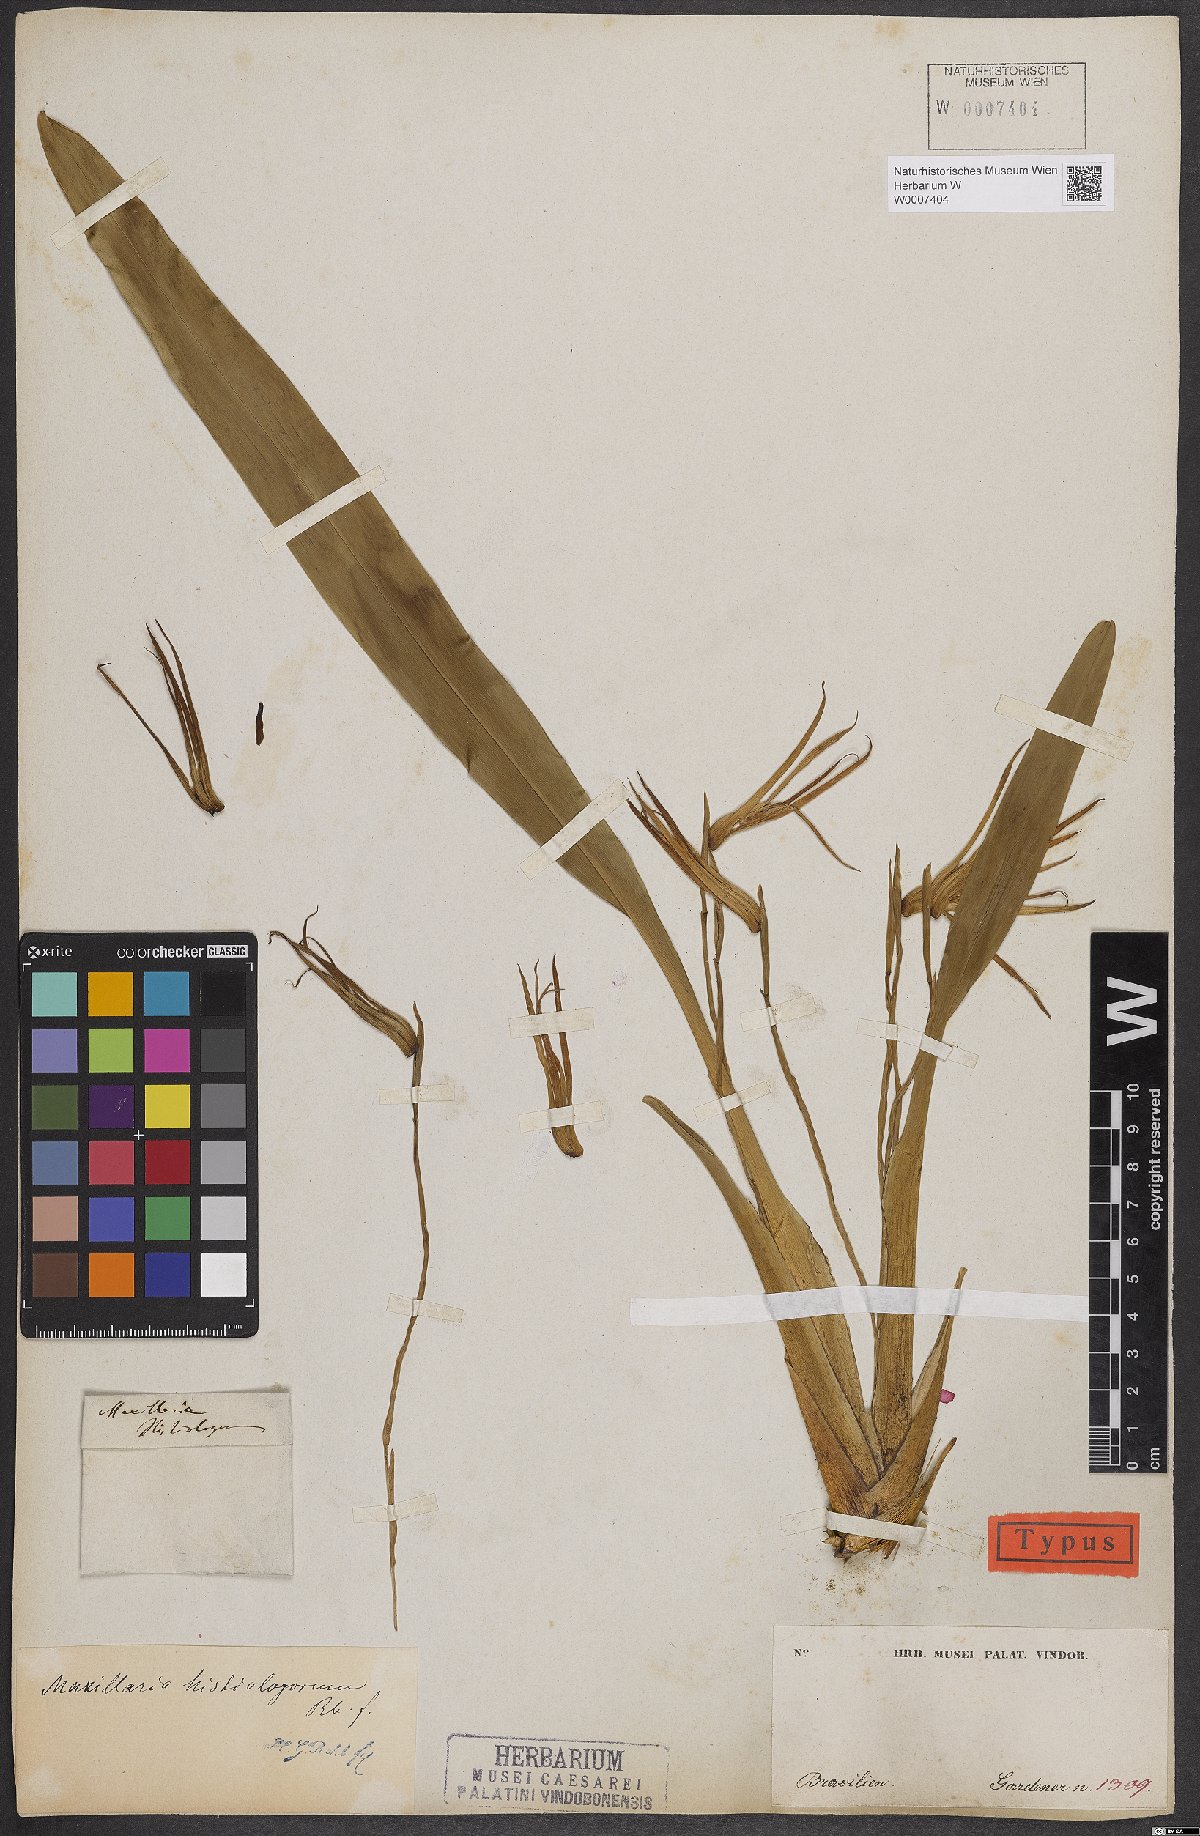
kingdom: Plantae
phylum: Tracheophyta
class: Liliopsida
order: Asparagales
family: Orchidaceae
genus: Maxillaria
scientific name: Maxillaria splendens
